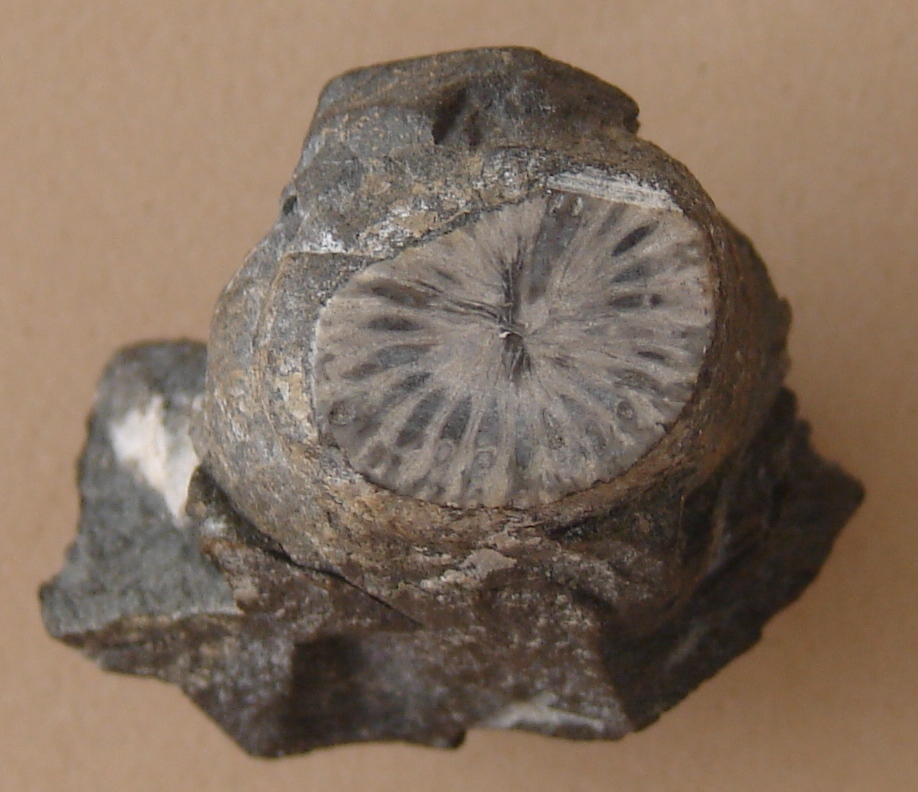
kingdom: Animalia
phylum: Cnidaria
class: Anthozoa
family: Hapsiphyllidae
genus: Hapsiphyllum
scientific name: Hapsiphyllum
